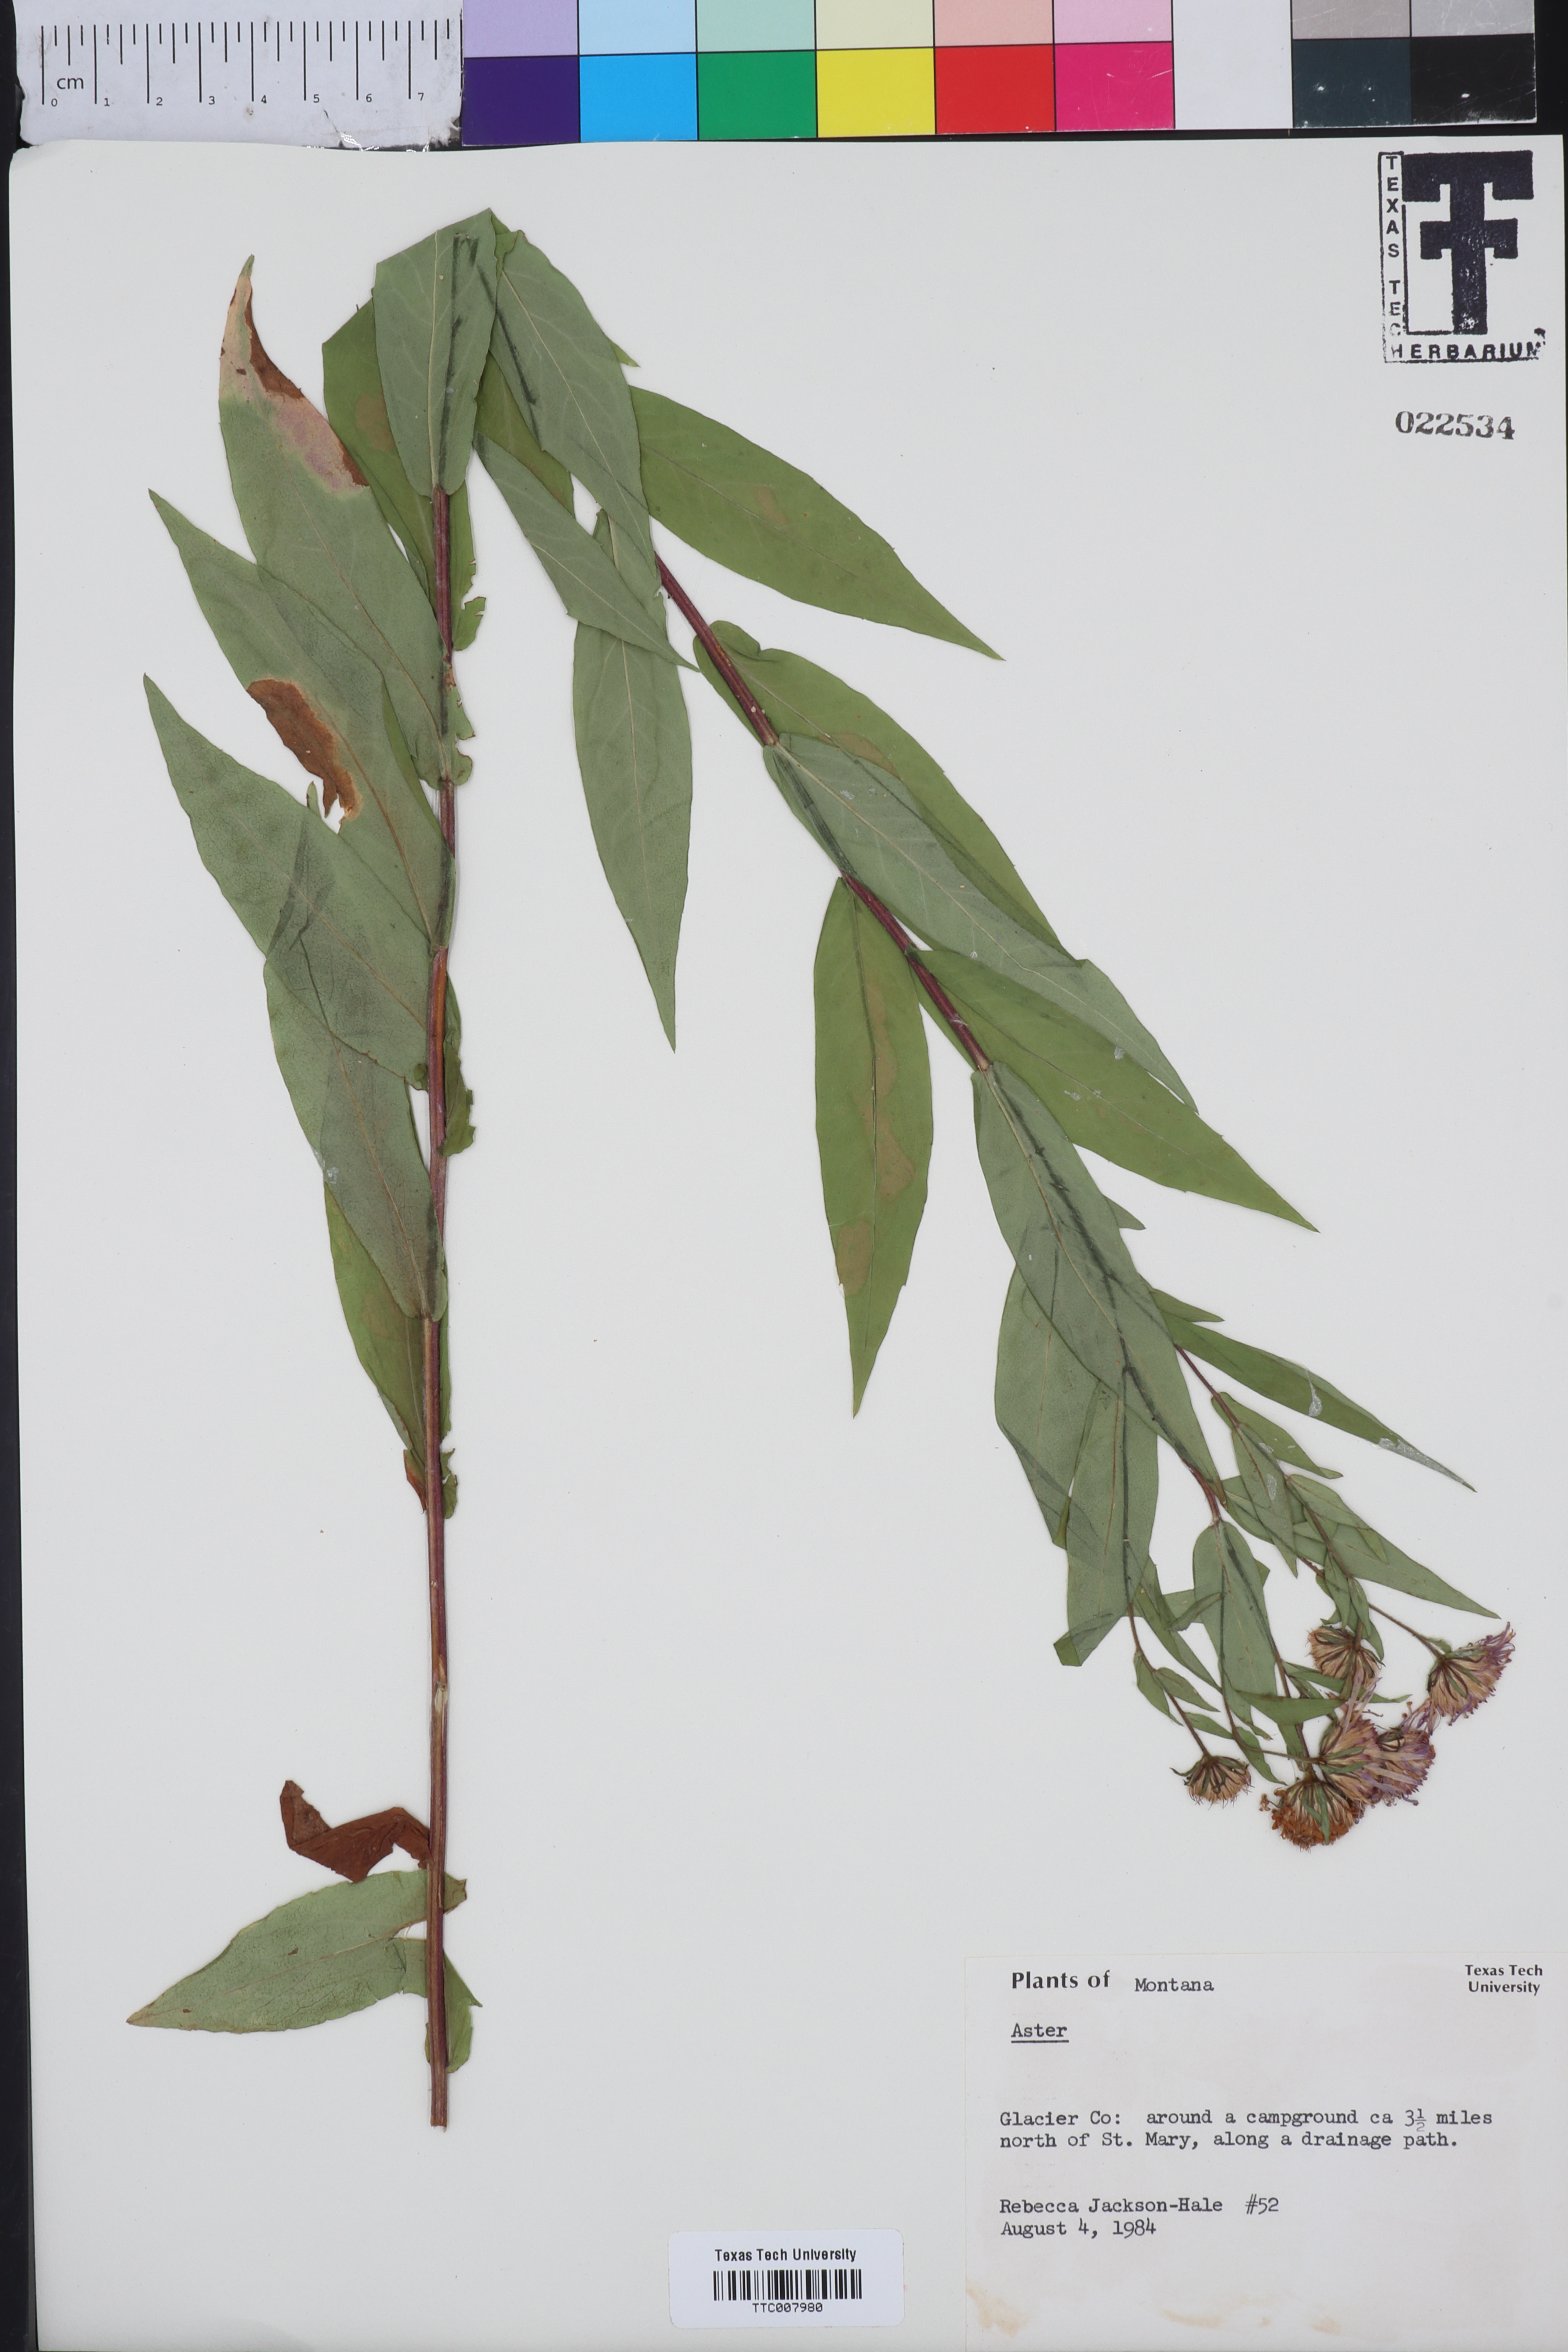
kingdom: Plantae
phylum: Tracheophyta
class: Magnoliopsida
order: Asterales
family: Asteraceae
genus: Aster
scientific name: Aster
